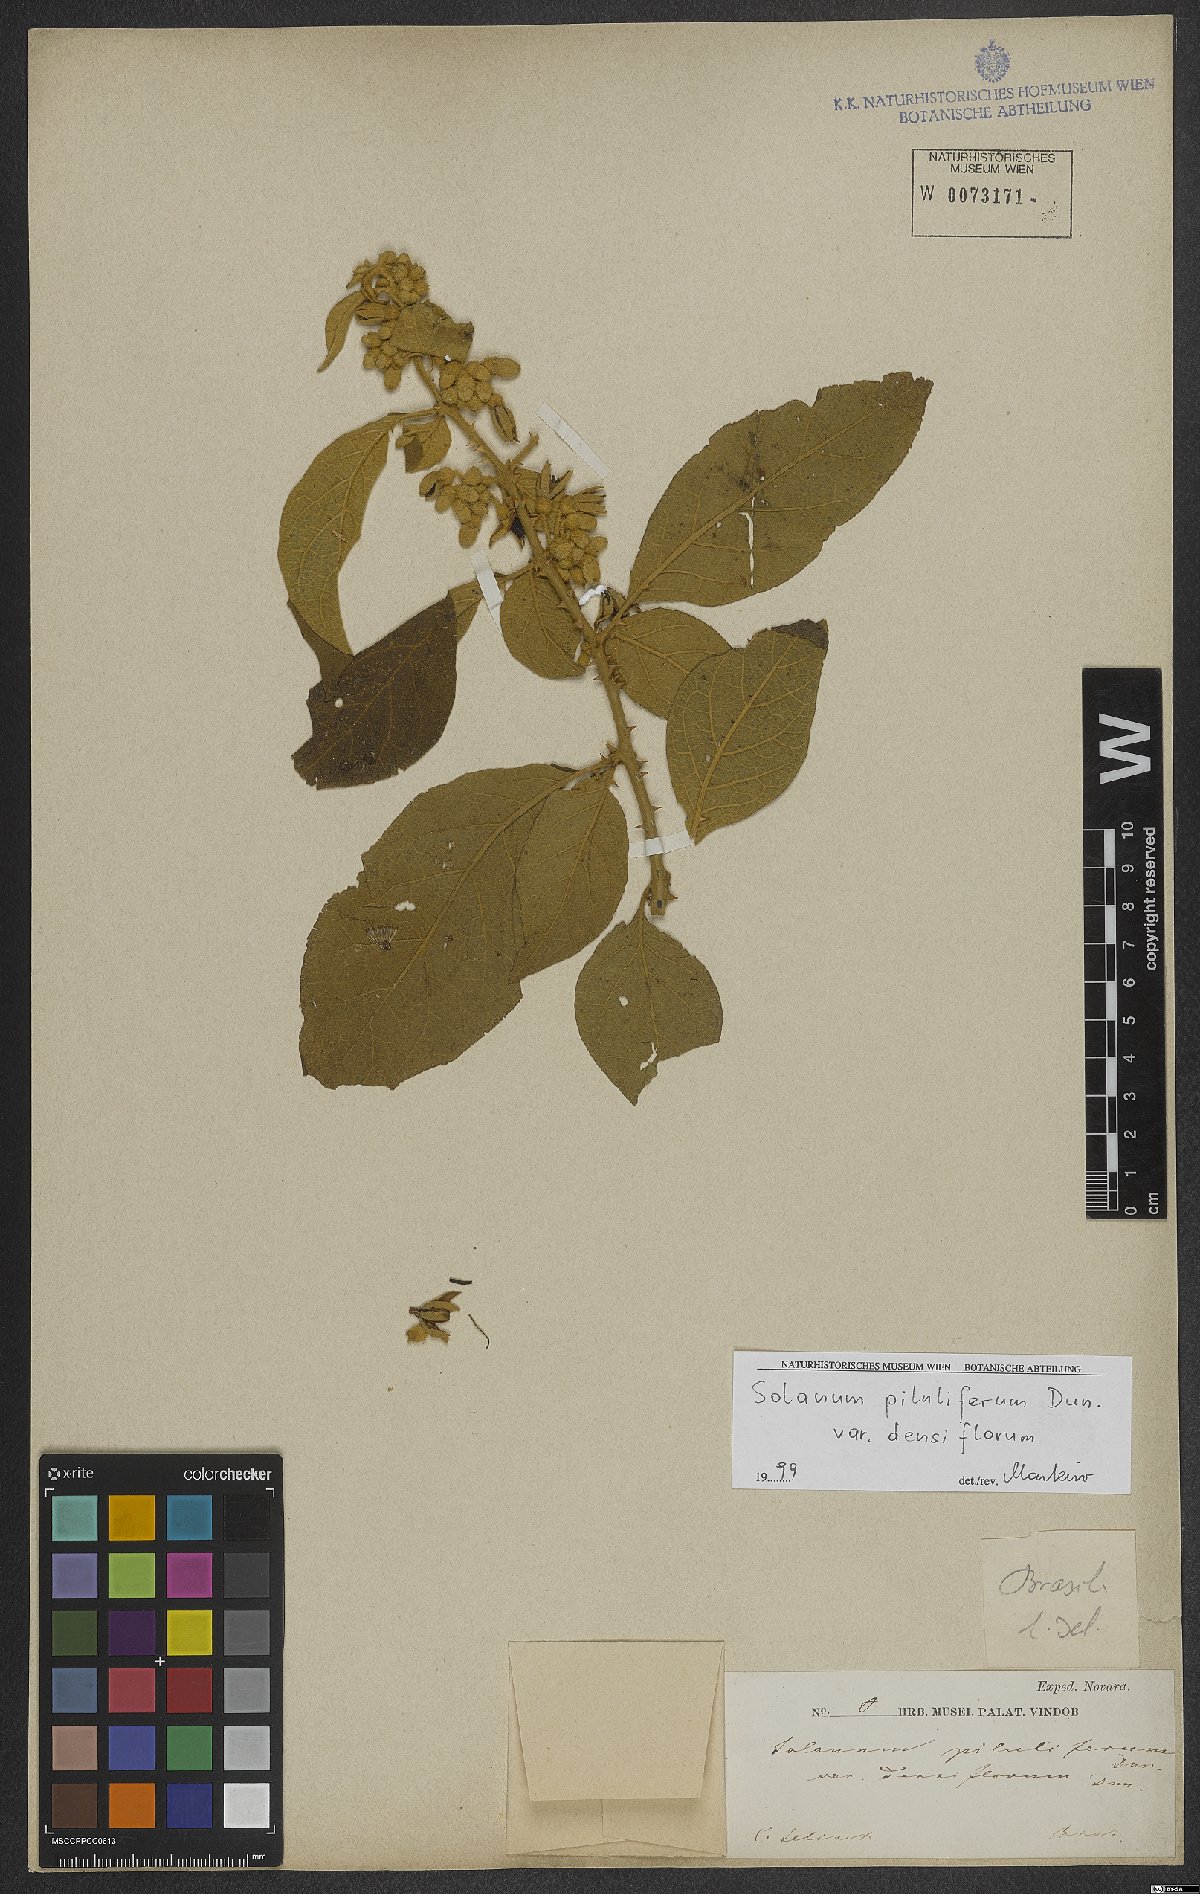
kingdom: Plantae
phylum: Tracheophyta
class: Magnoliopsida
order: Solanales
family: Solanaceae
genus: Solanum
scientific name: Solanum piluliferum
